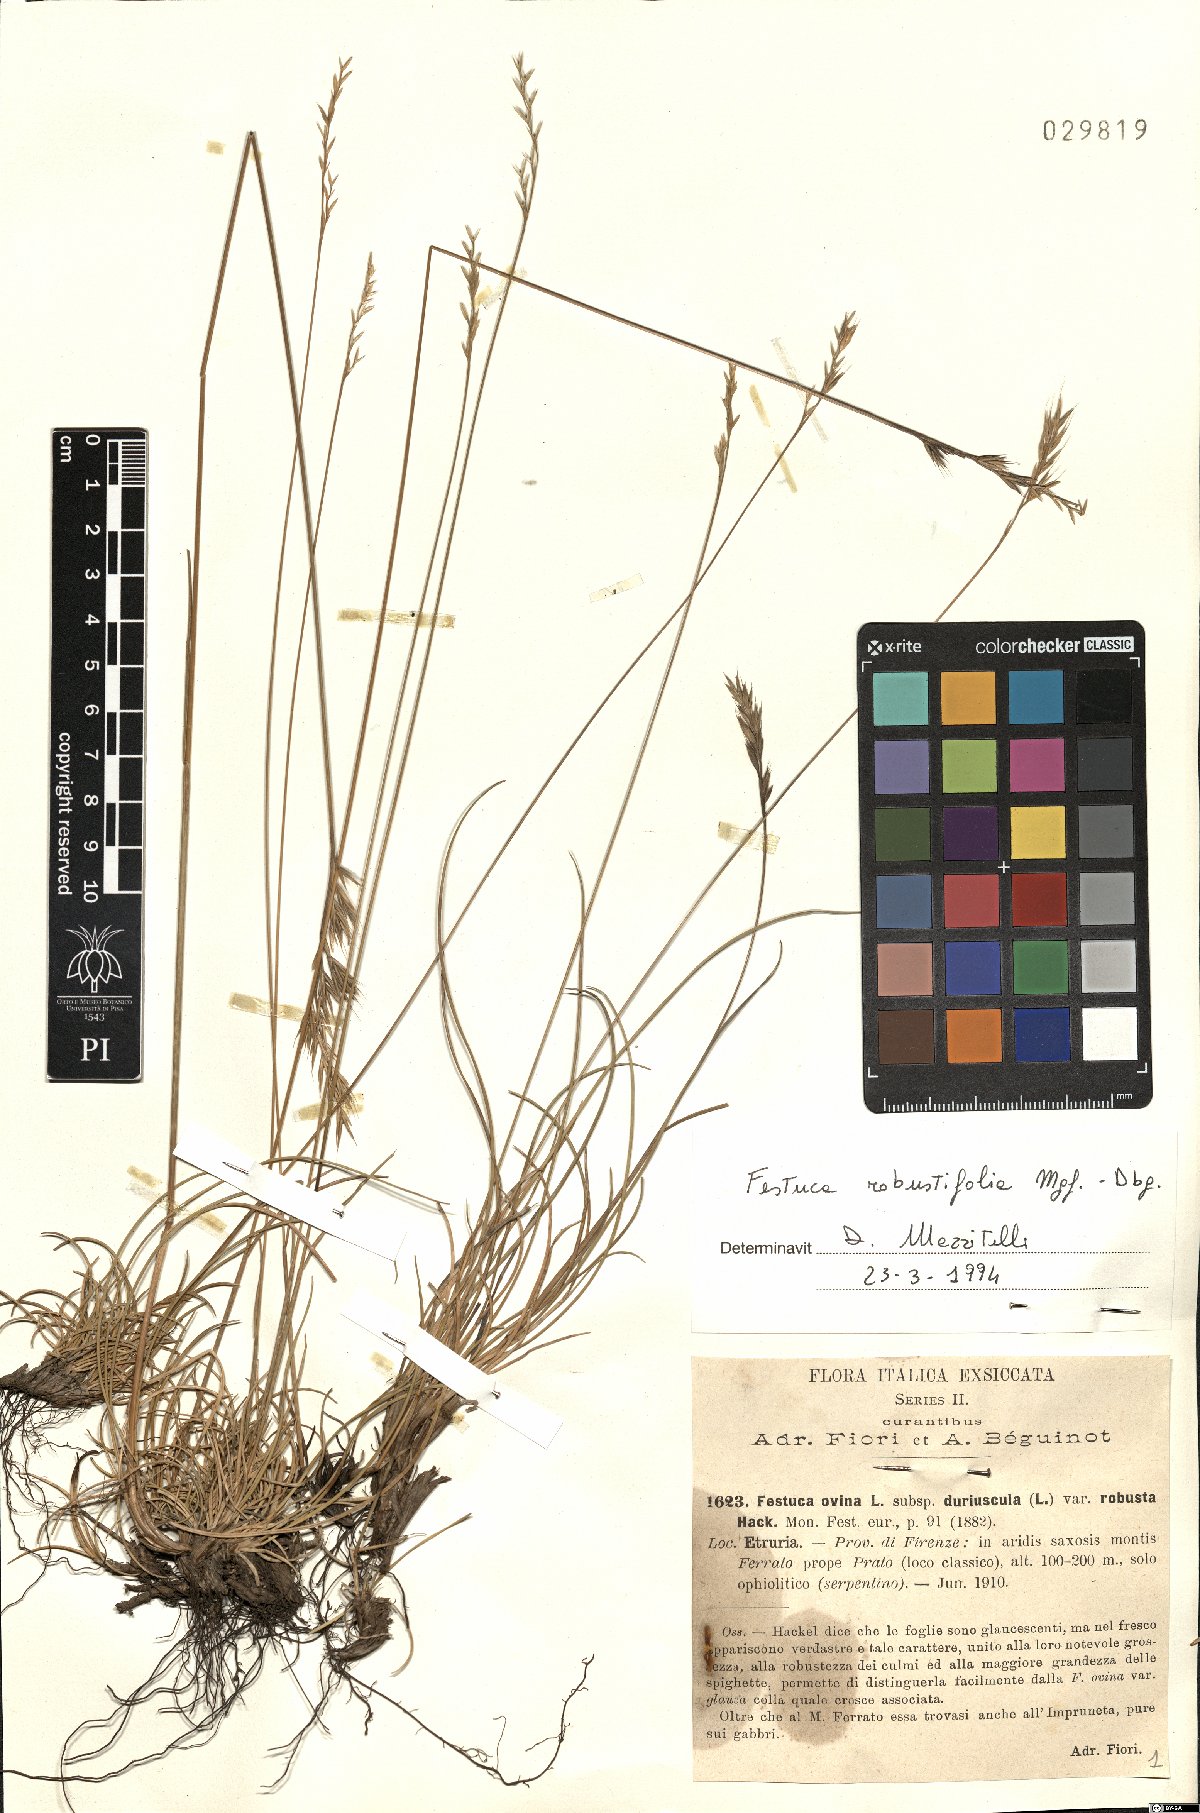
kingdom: Plantae
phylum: Tracheophyta
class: Liliopsida
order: Poales
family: Poaceae
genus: Festuca
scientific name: Festuca robustifolia
